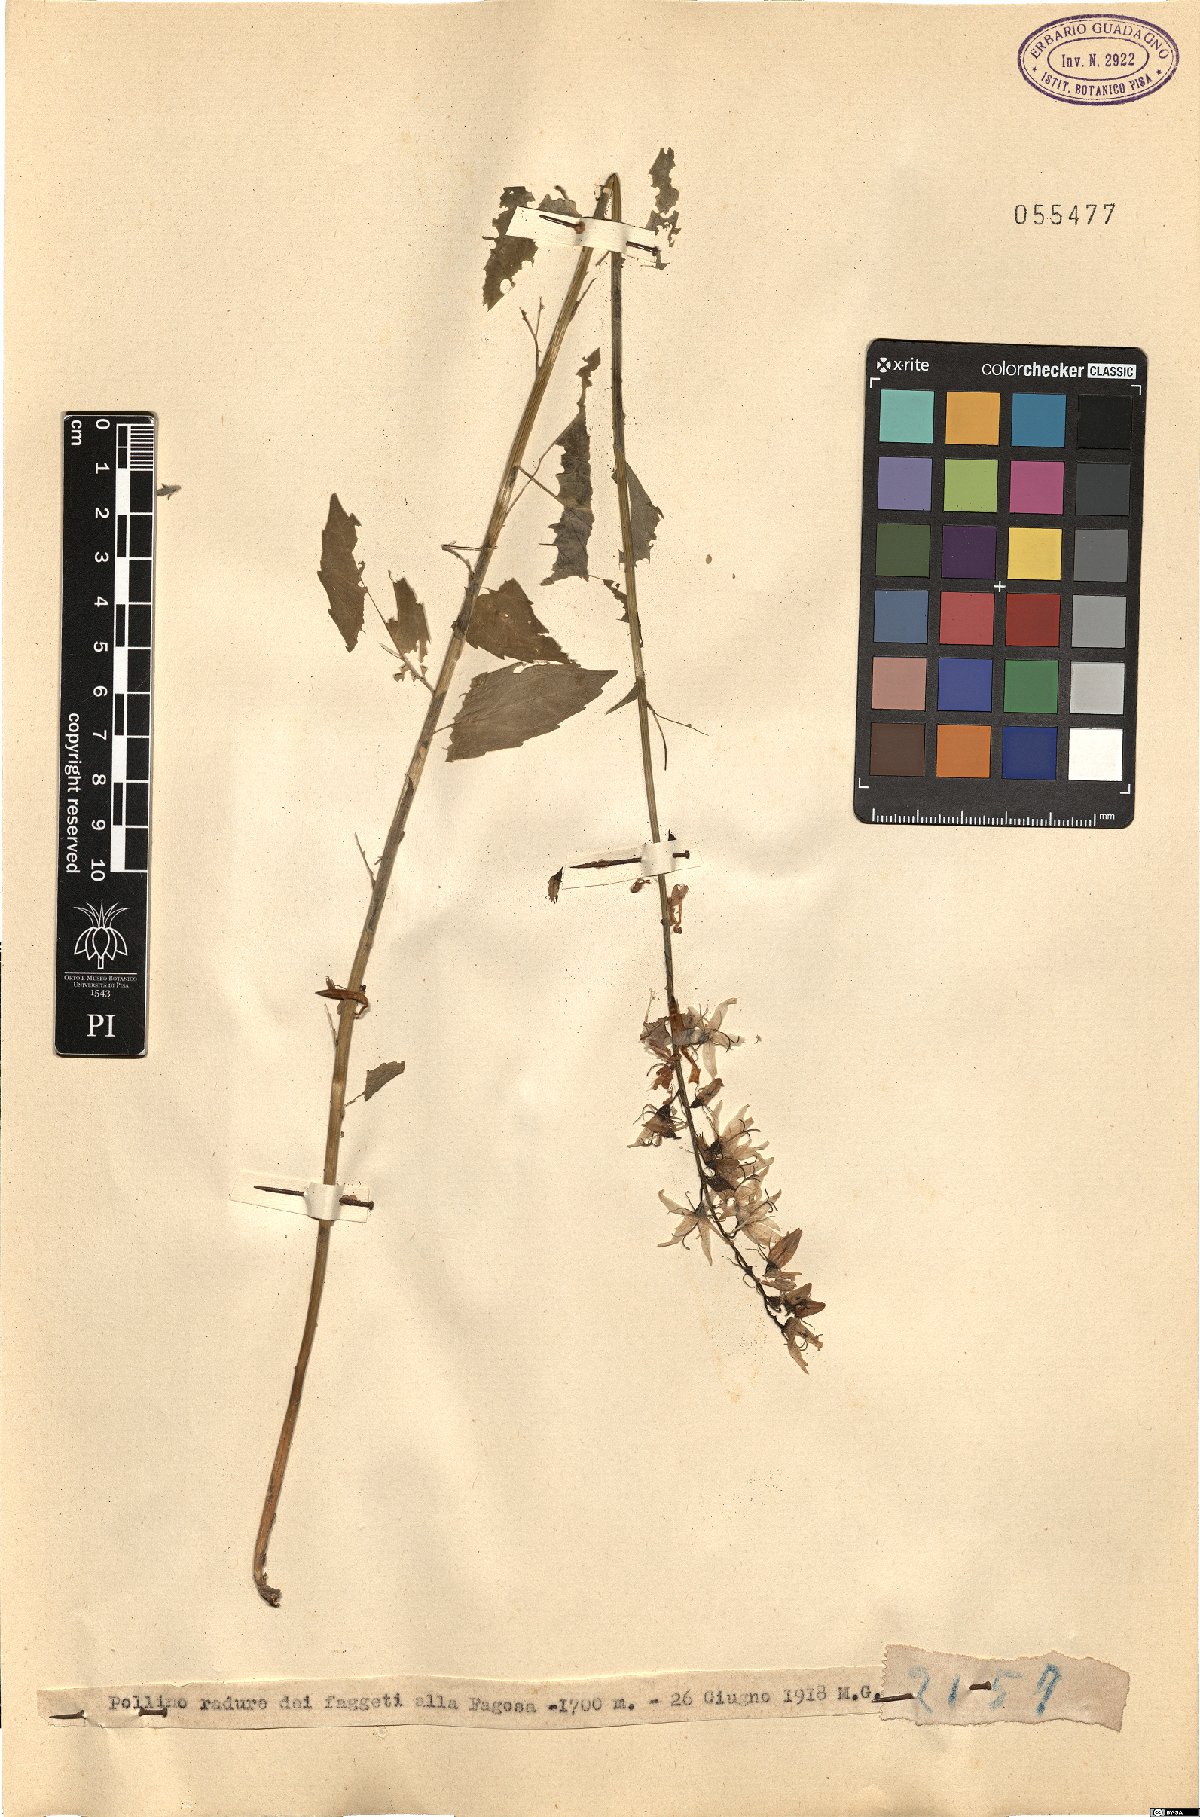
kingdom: Plantae
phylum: Tracheophyta
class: Magnoliopsida
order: Asterales
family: Campanulaceae
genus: Campanula
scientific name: Campanula
